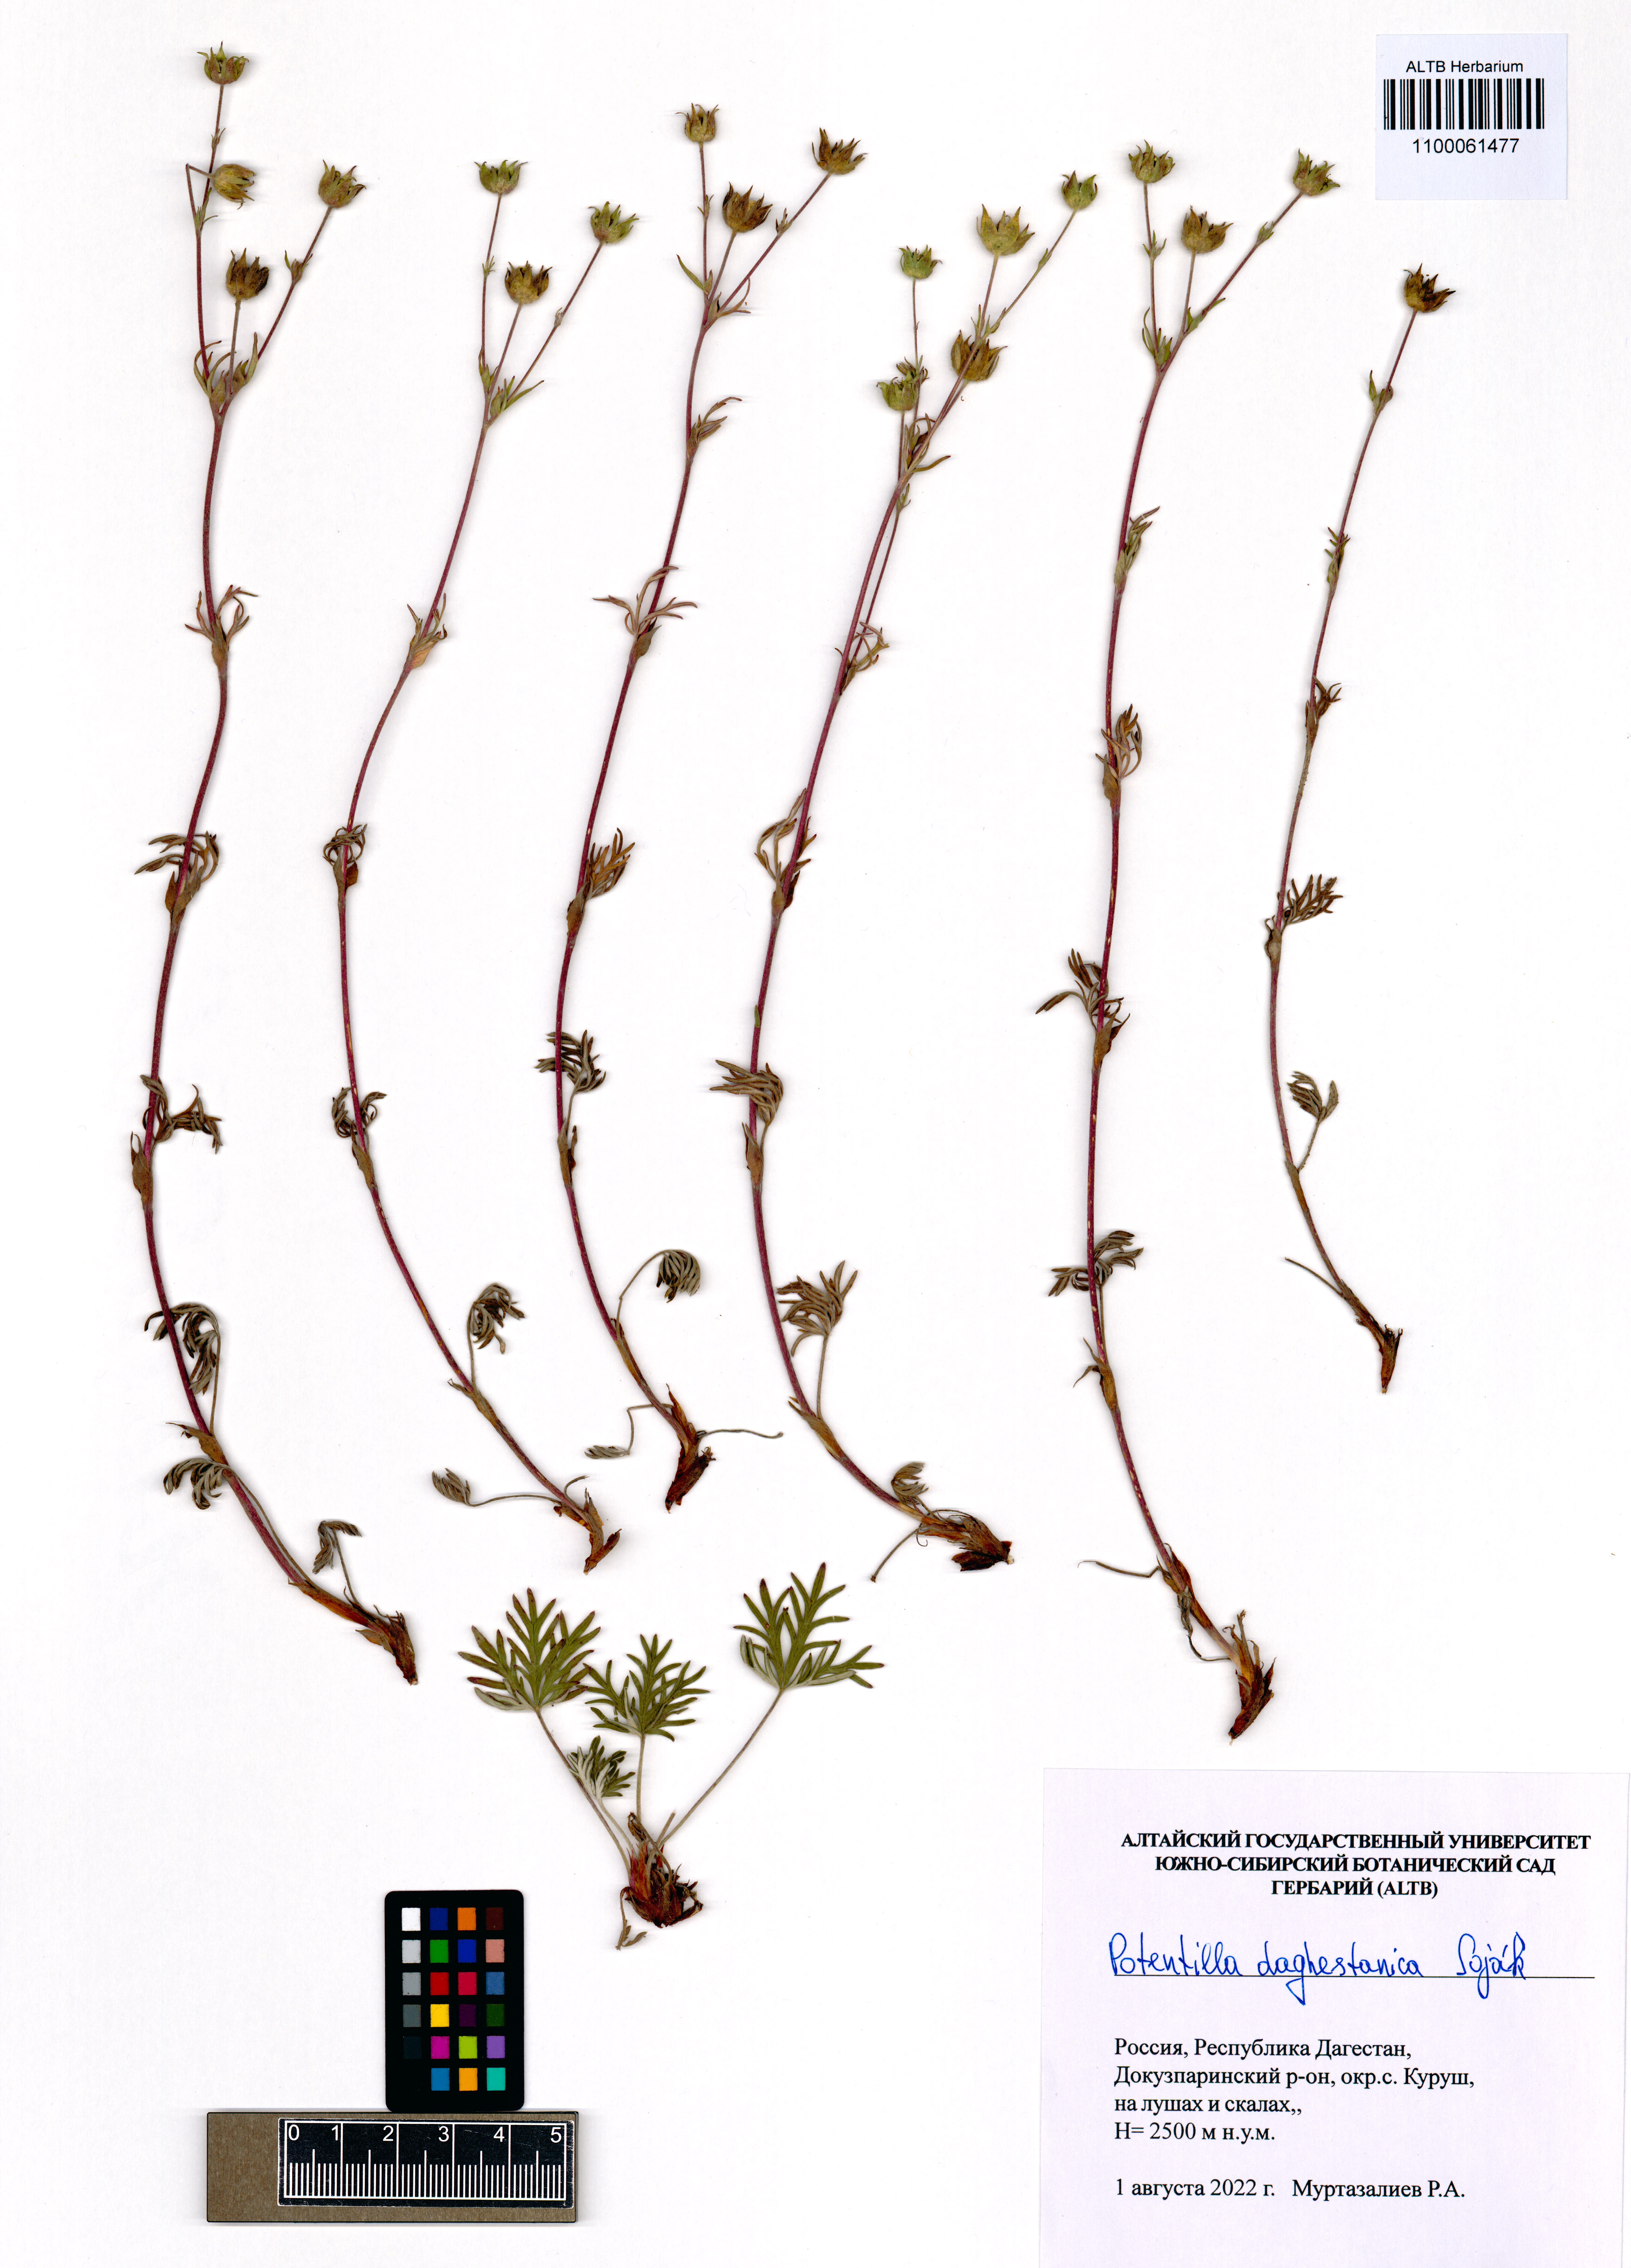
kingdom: Plantae
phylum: Tracheophyta
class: Magnoliopsida
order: Rosales
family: Rosaceae
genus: Potentilla
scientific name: Potentilla daghestanica
